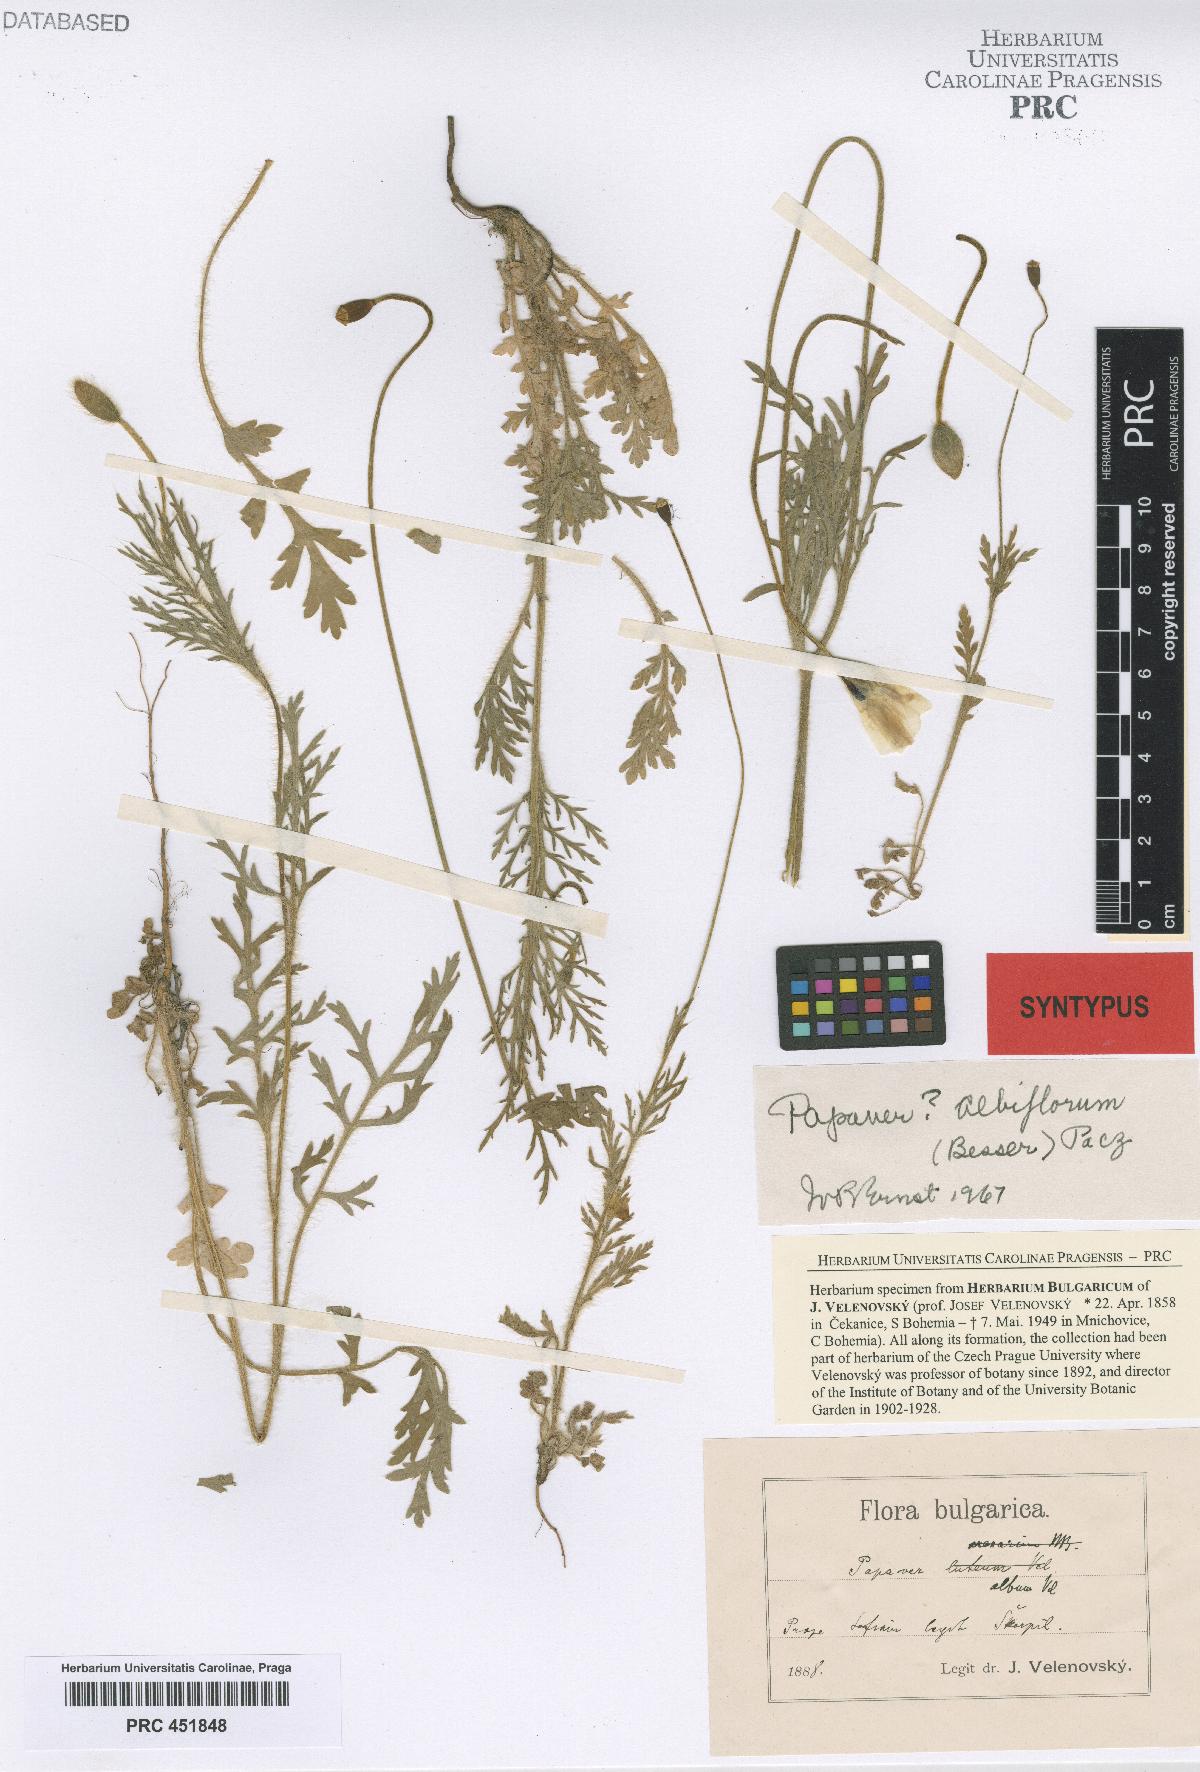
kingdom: Plantae
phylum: Tracheophyta
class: Magnoliopsida
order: Ranunculales
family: Papaveraceae
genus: Papaver
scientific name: Papaver dubium
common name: Long-headed poppy
